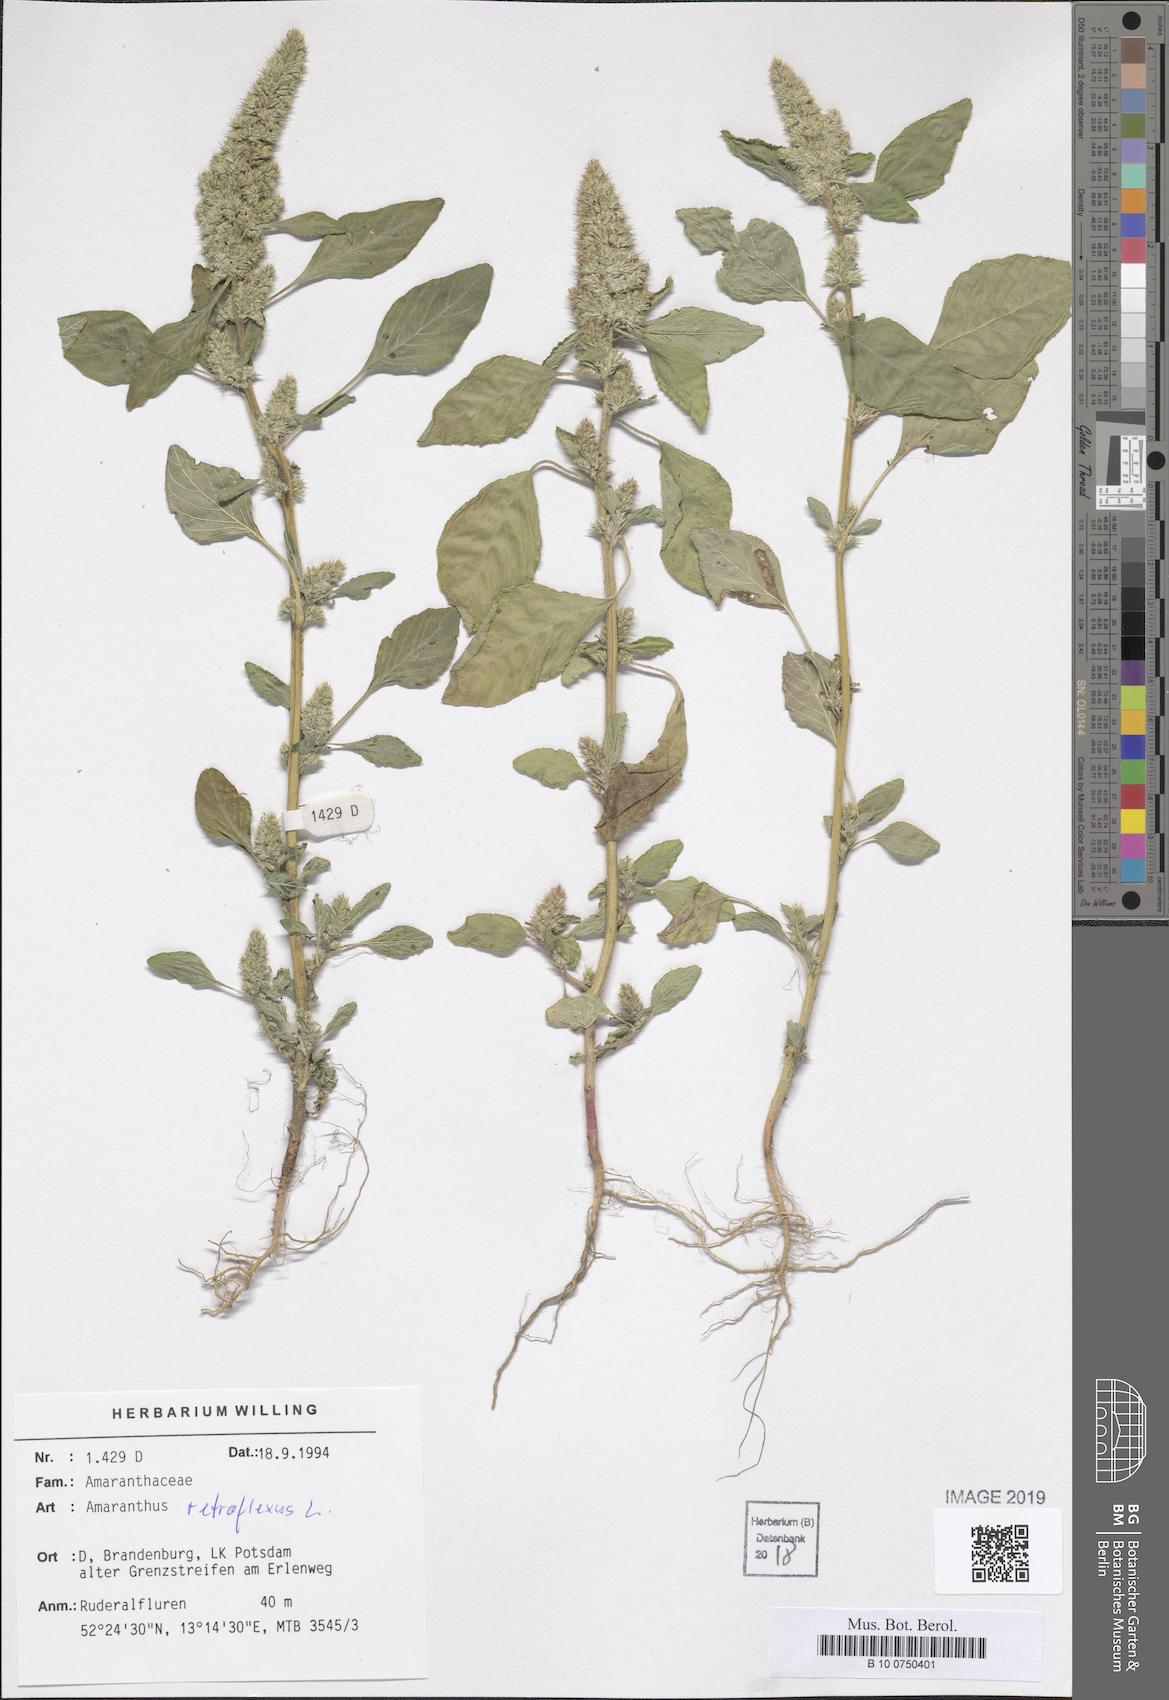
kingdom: Plantae
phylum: Tracheophyta
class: Magnoliopsida
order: Caryophyllales
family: Amaranthaceae
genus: Amaranthus
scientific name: Amaranthus retroflexus
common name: Redroot amaranth
